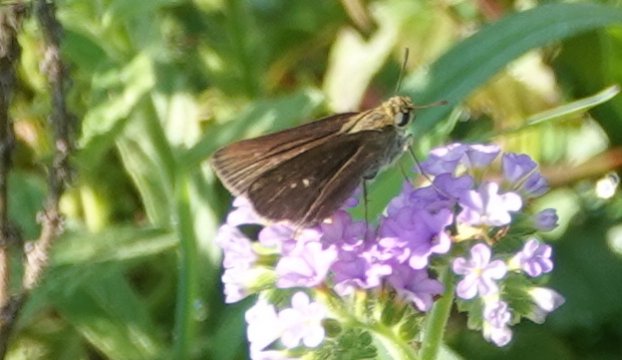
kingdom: Animalia
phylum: Arthropoda
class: Insecta
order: Lepidoptera
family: Hesperiidae
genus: Panoquina
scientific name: Panoquina ocola
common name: Ocola Skipper
